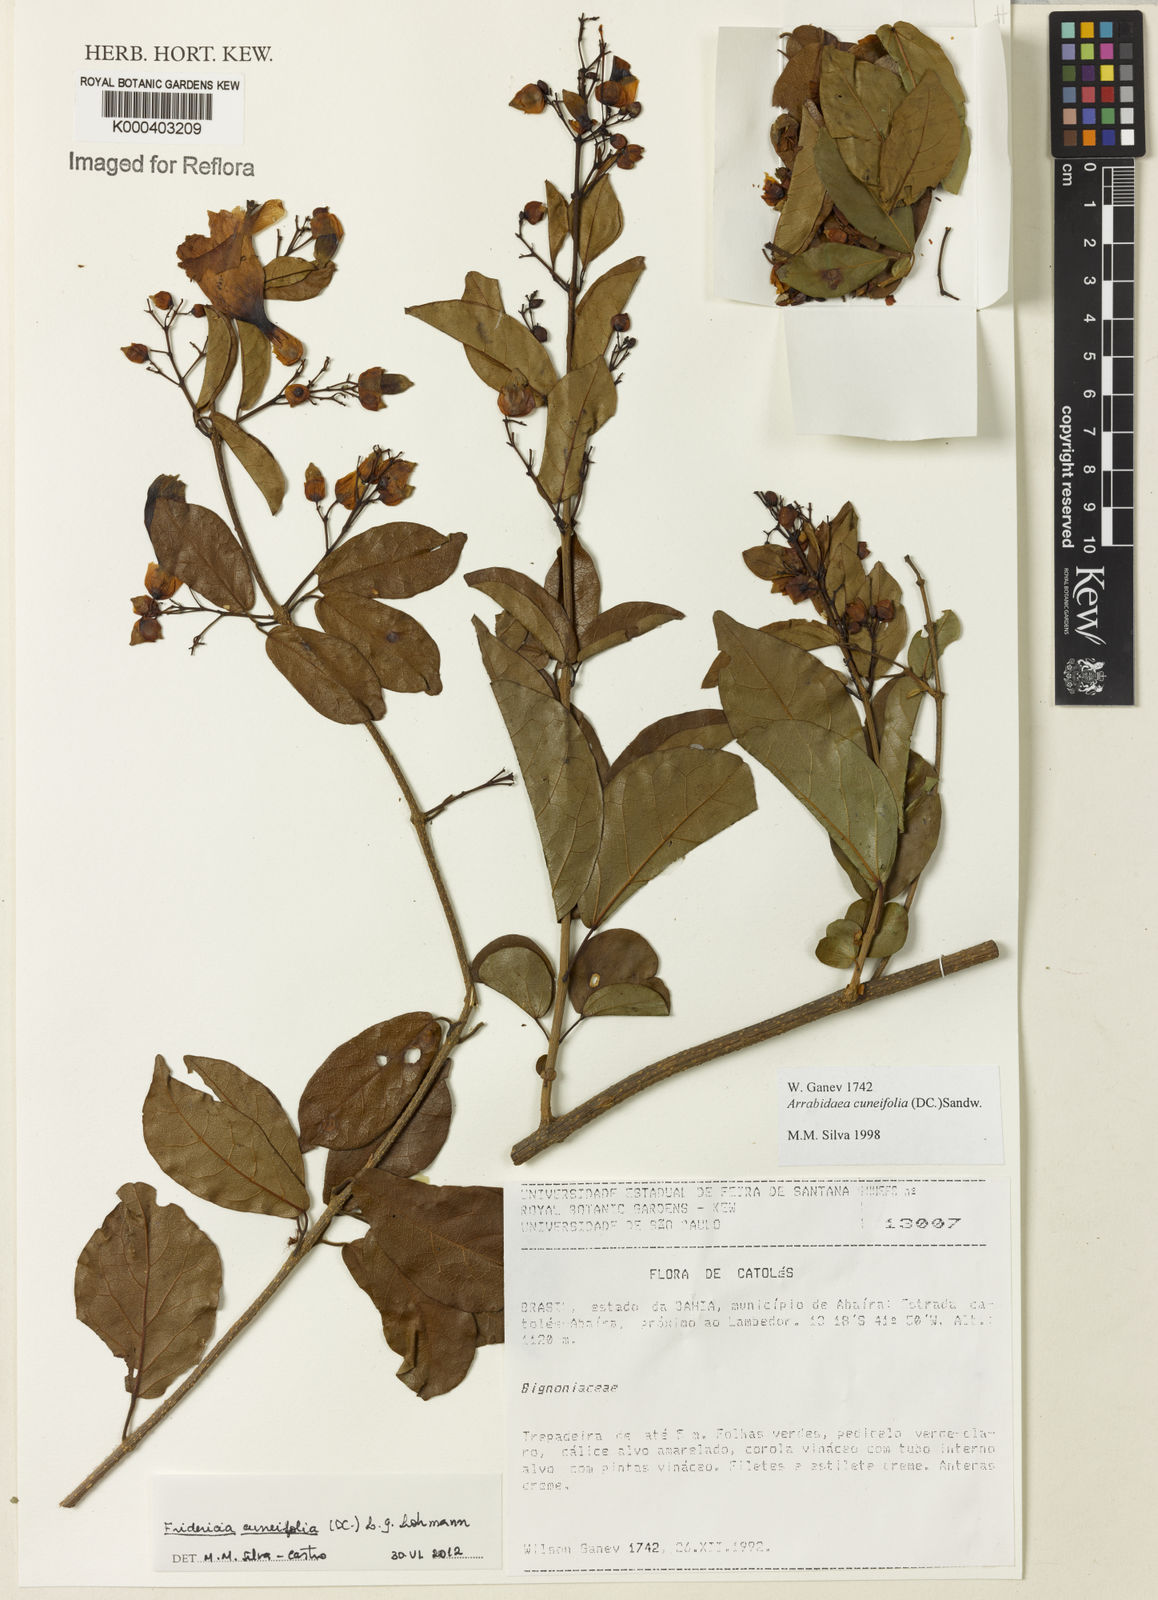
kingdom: Plantae
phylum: Tracheophyta
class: Magnoliopsida
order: Lamiales
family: Bignoniaceae
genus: Fridericia
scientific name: Fridericia cuneifolia
